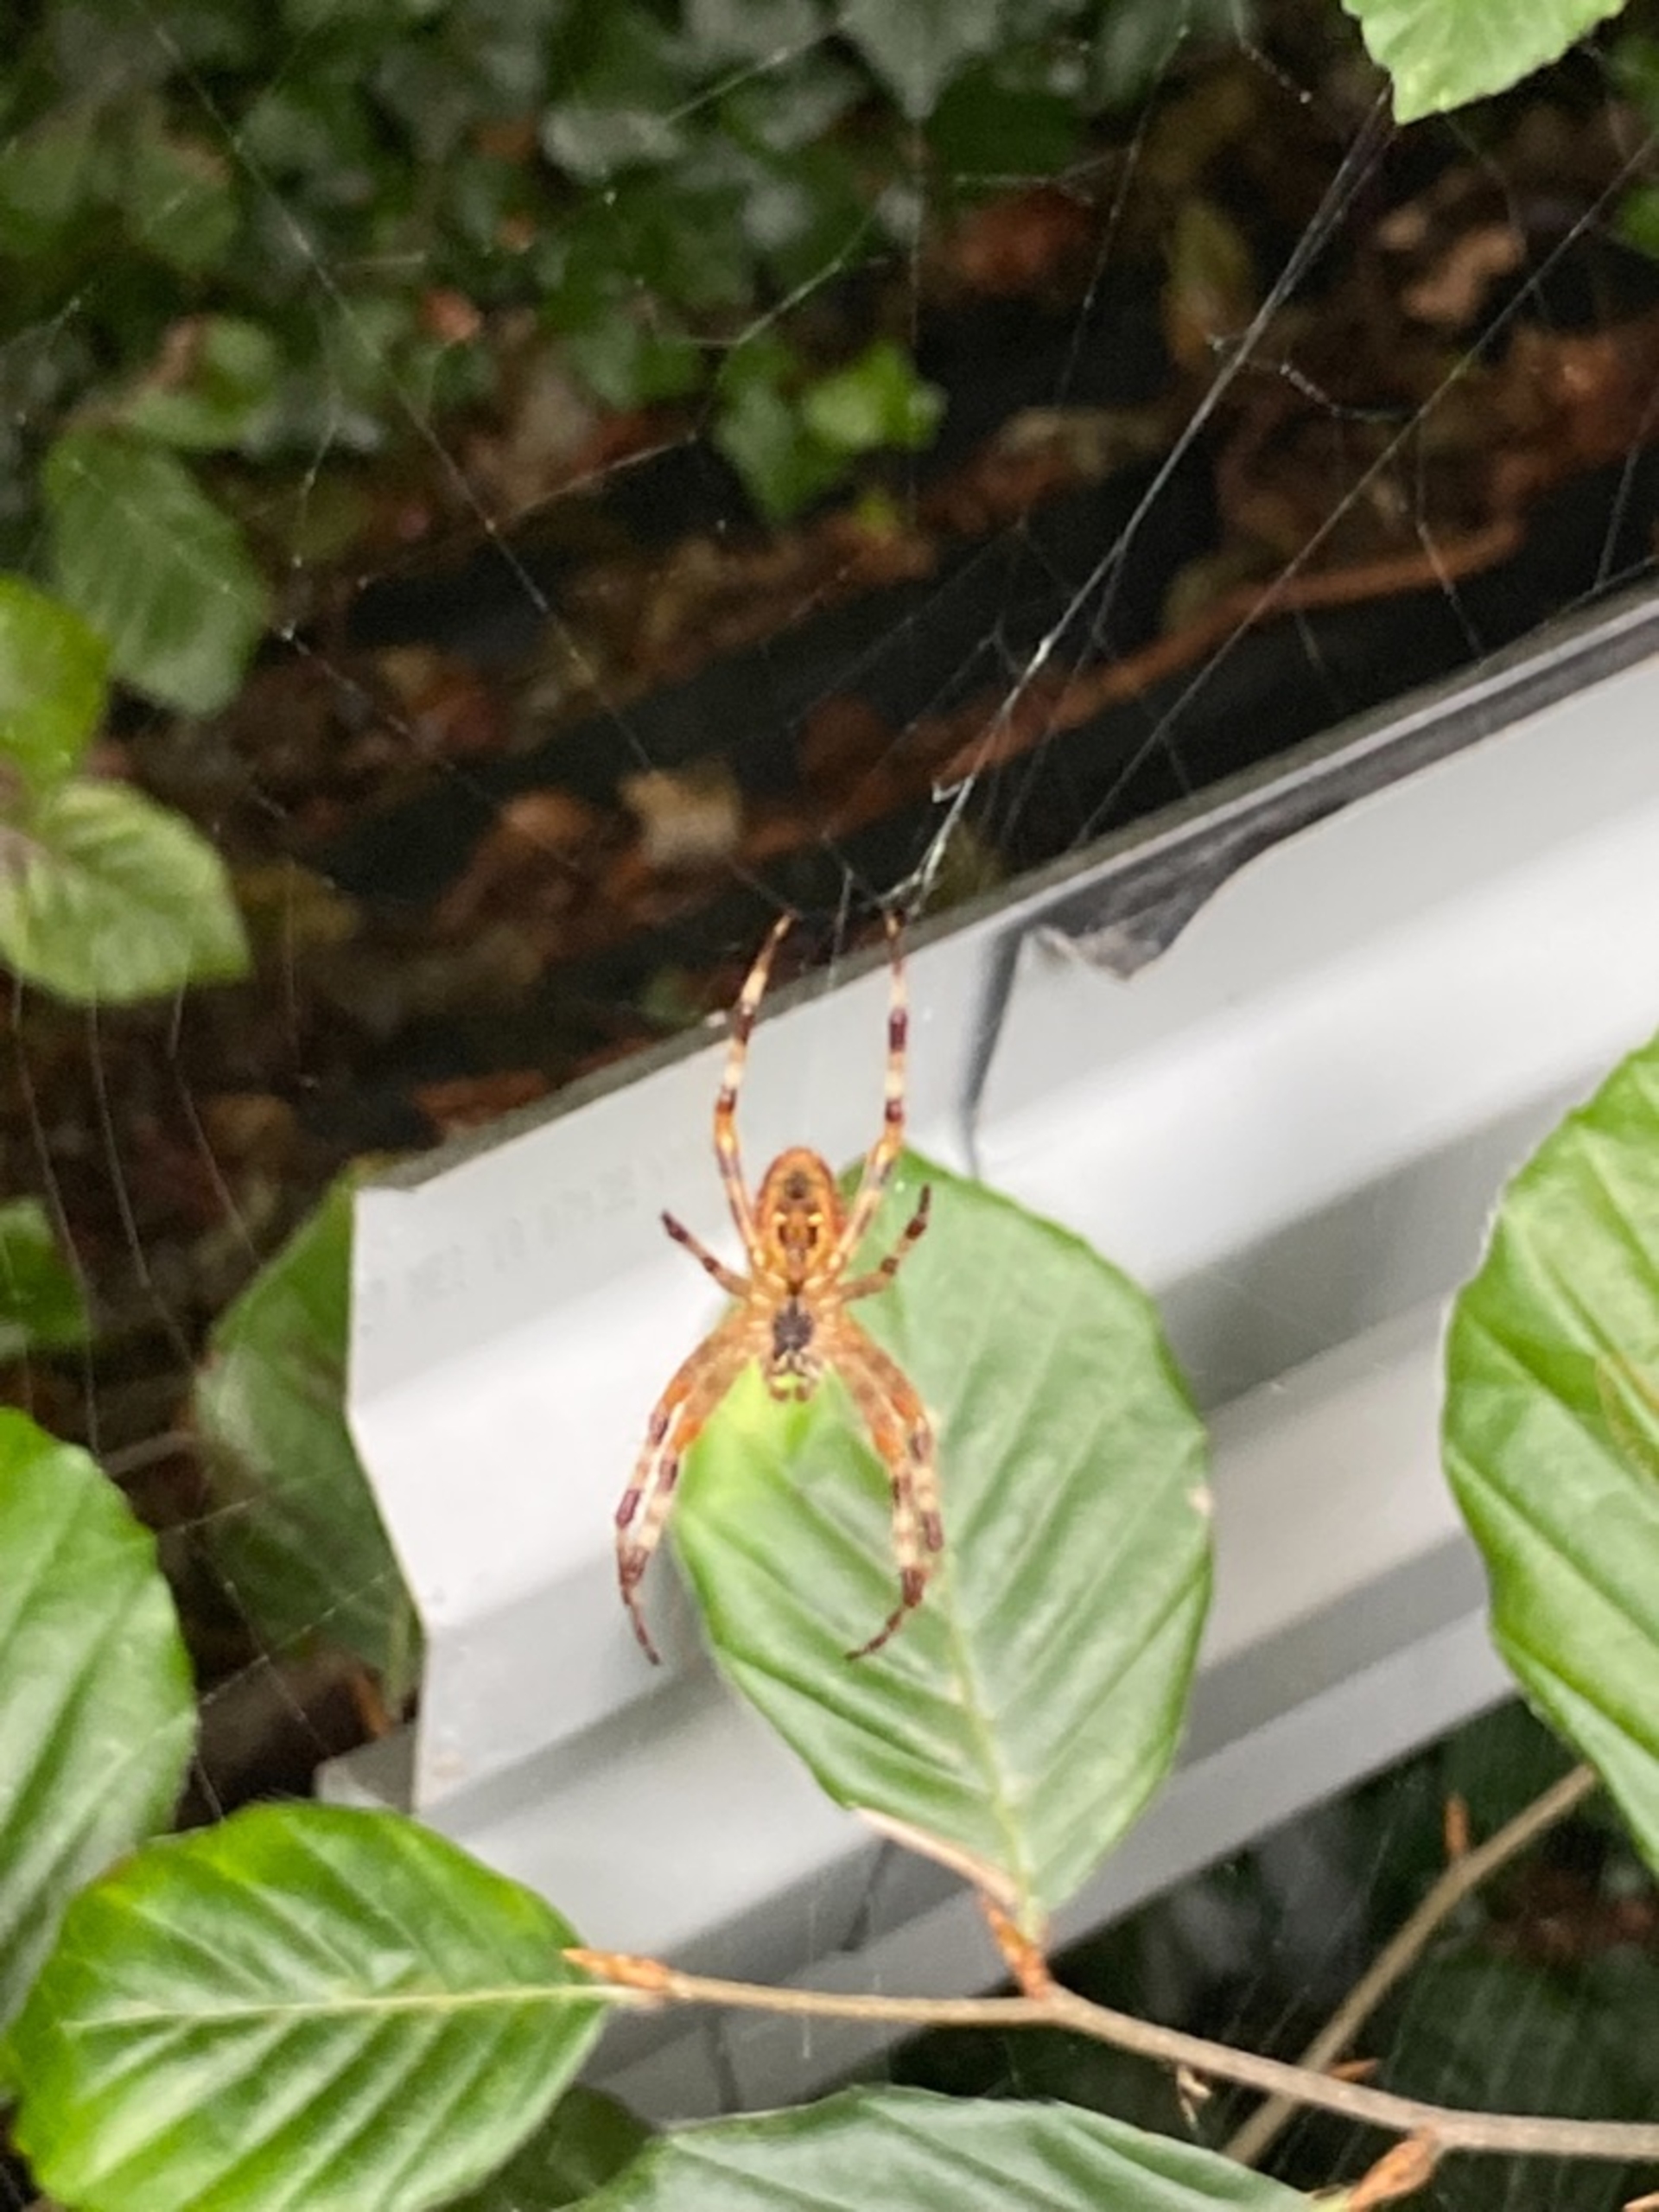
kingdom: Animalia
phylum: Arthropoda
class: Arachnida
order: Araneae
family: Araneidae
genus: Araneus
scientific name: Araneus diadematus
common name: Korsedderkop
